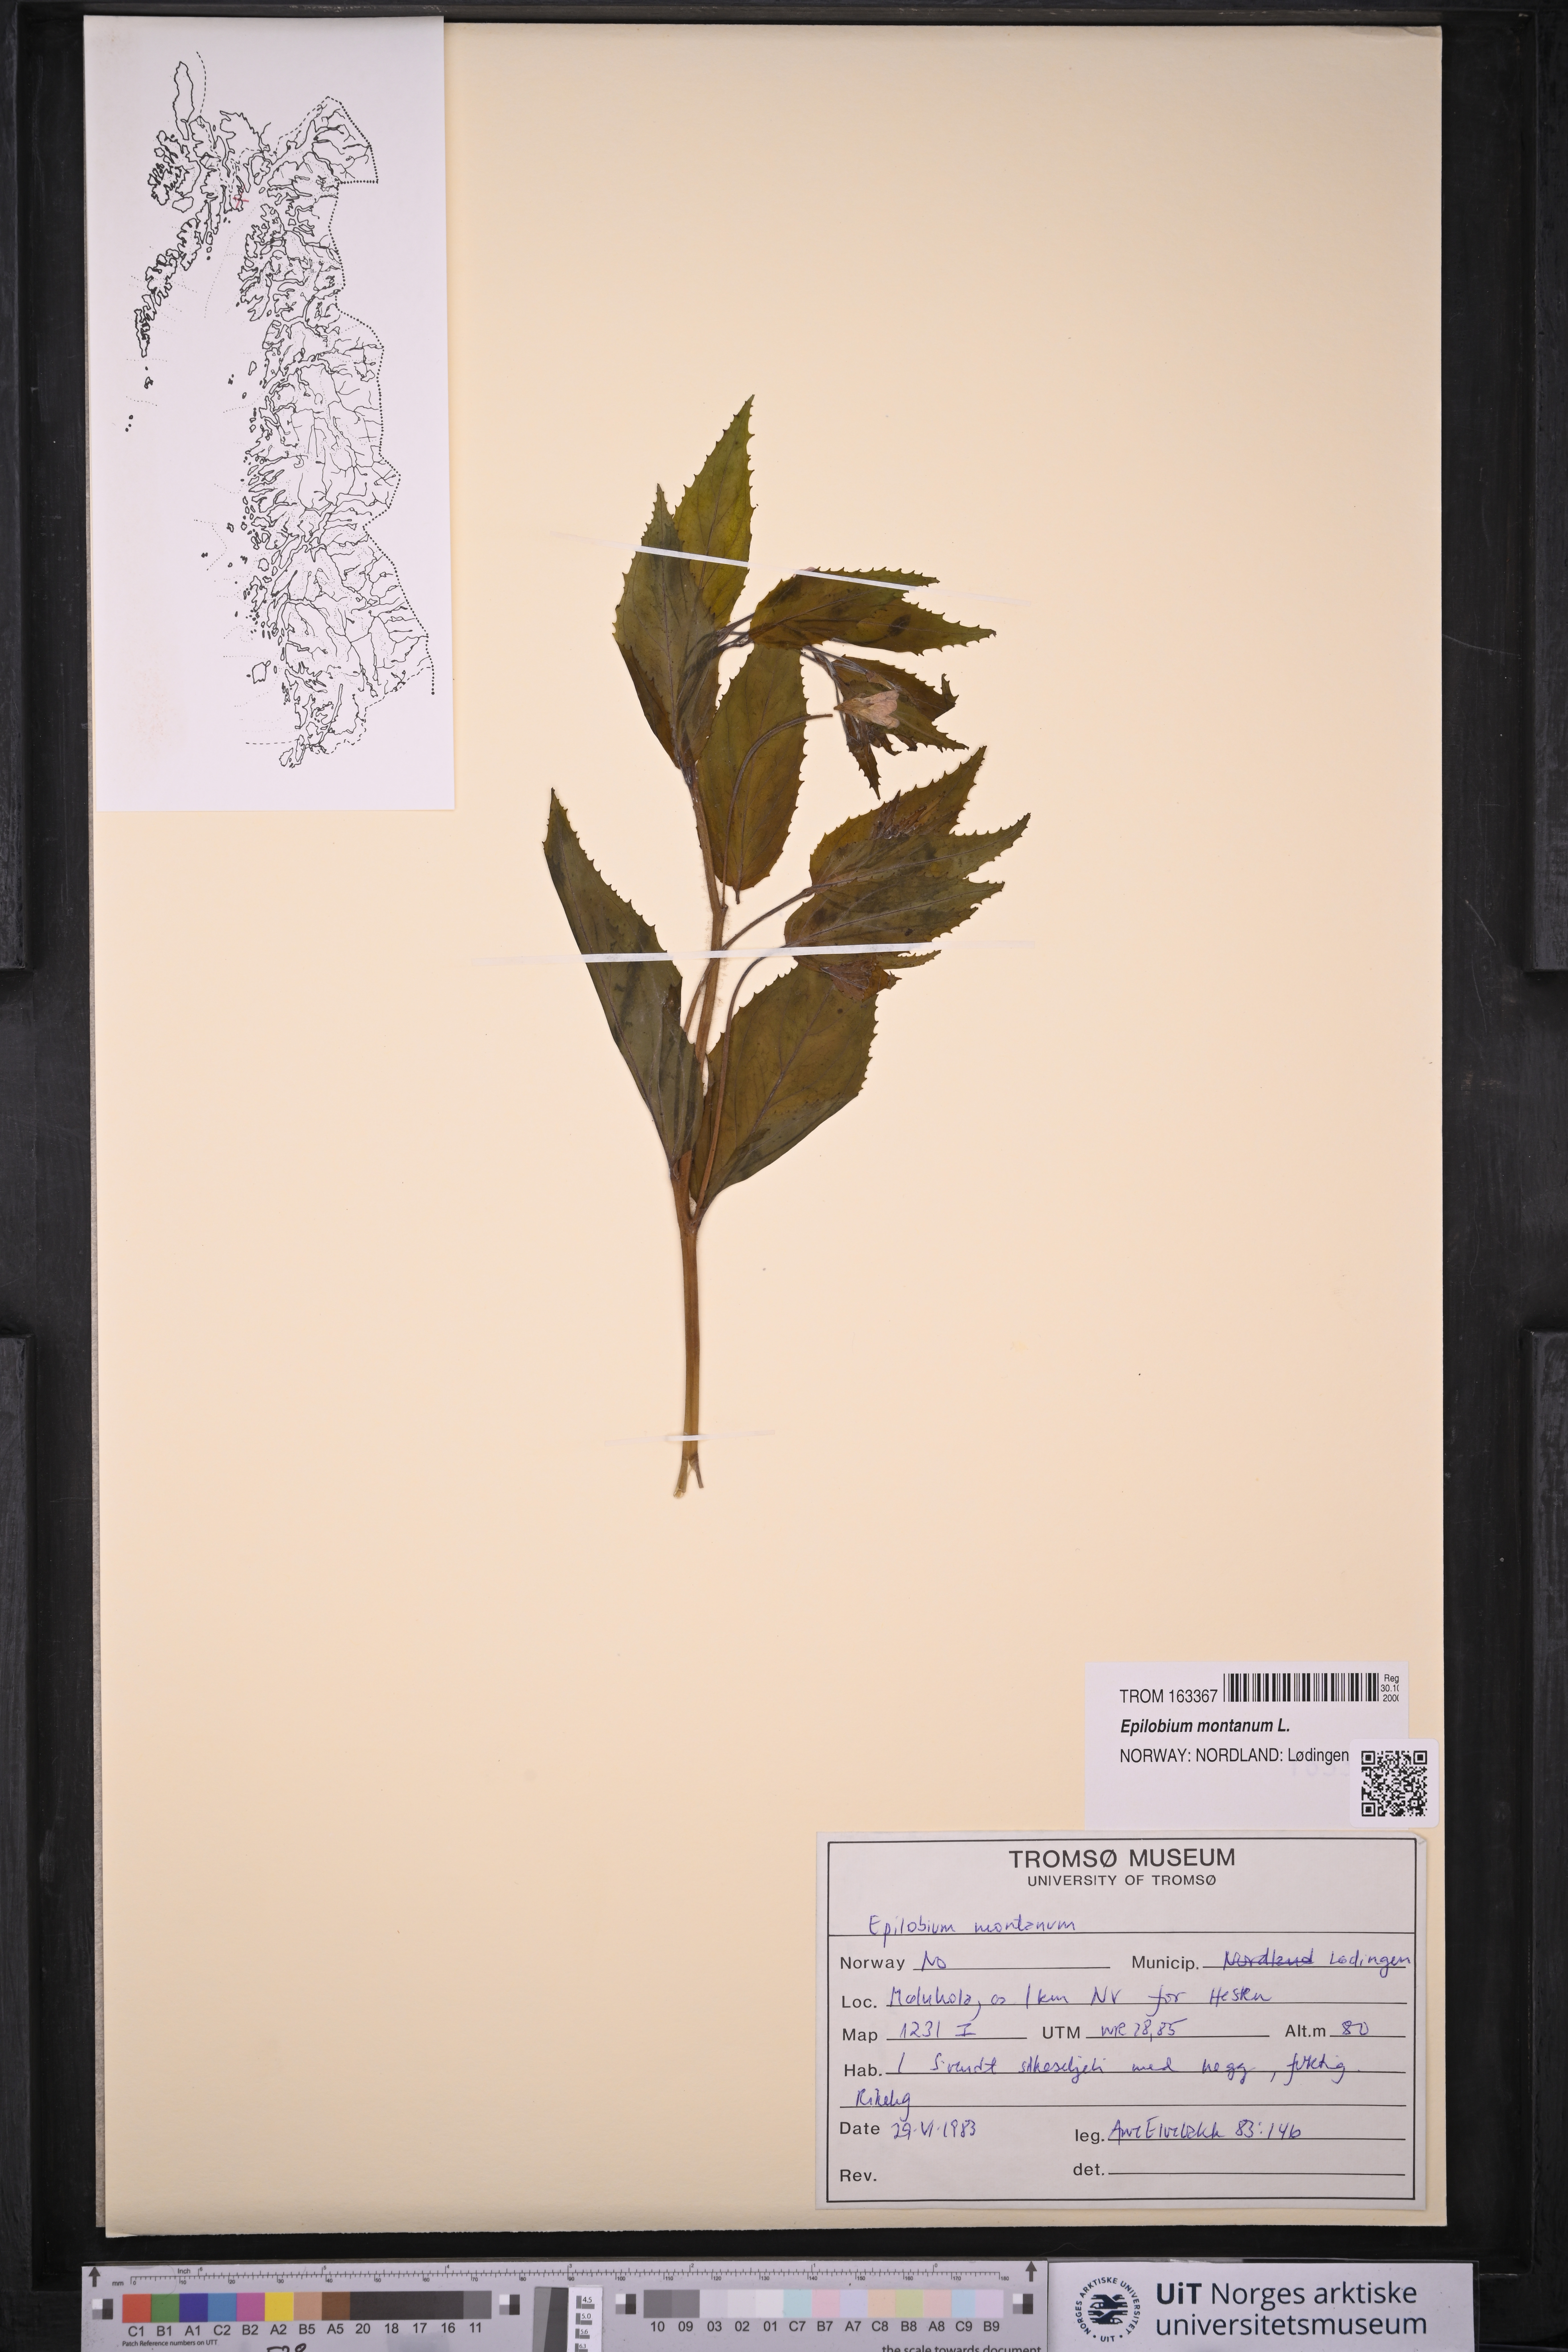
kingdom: Plantae
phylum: Tracheophyta
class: Magnoliopsida
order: Myrtales
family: Onagraceae
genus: Epilobium
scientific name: Epilobium montanum
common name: Broad-leaved willowherb
